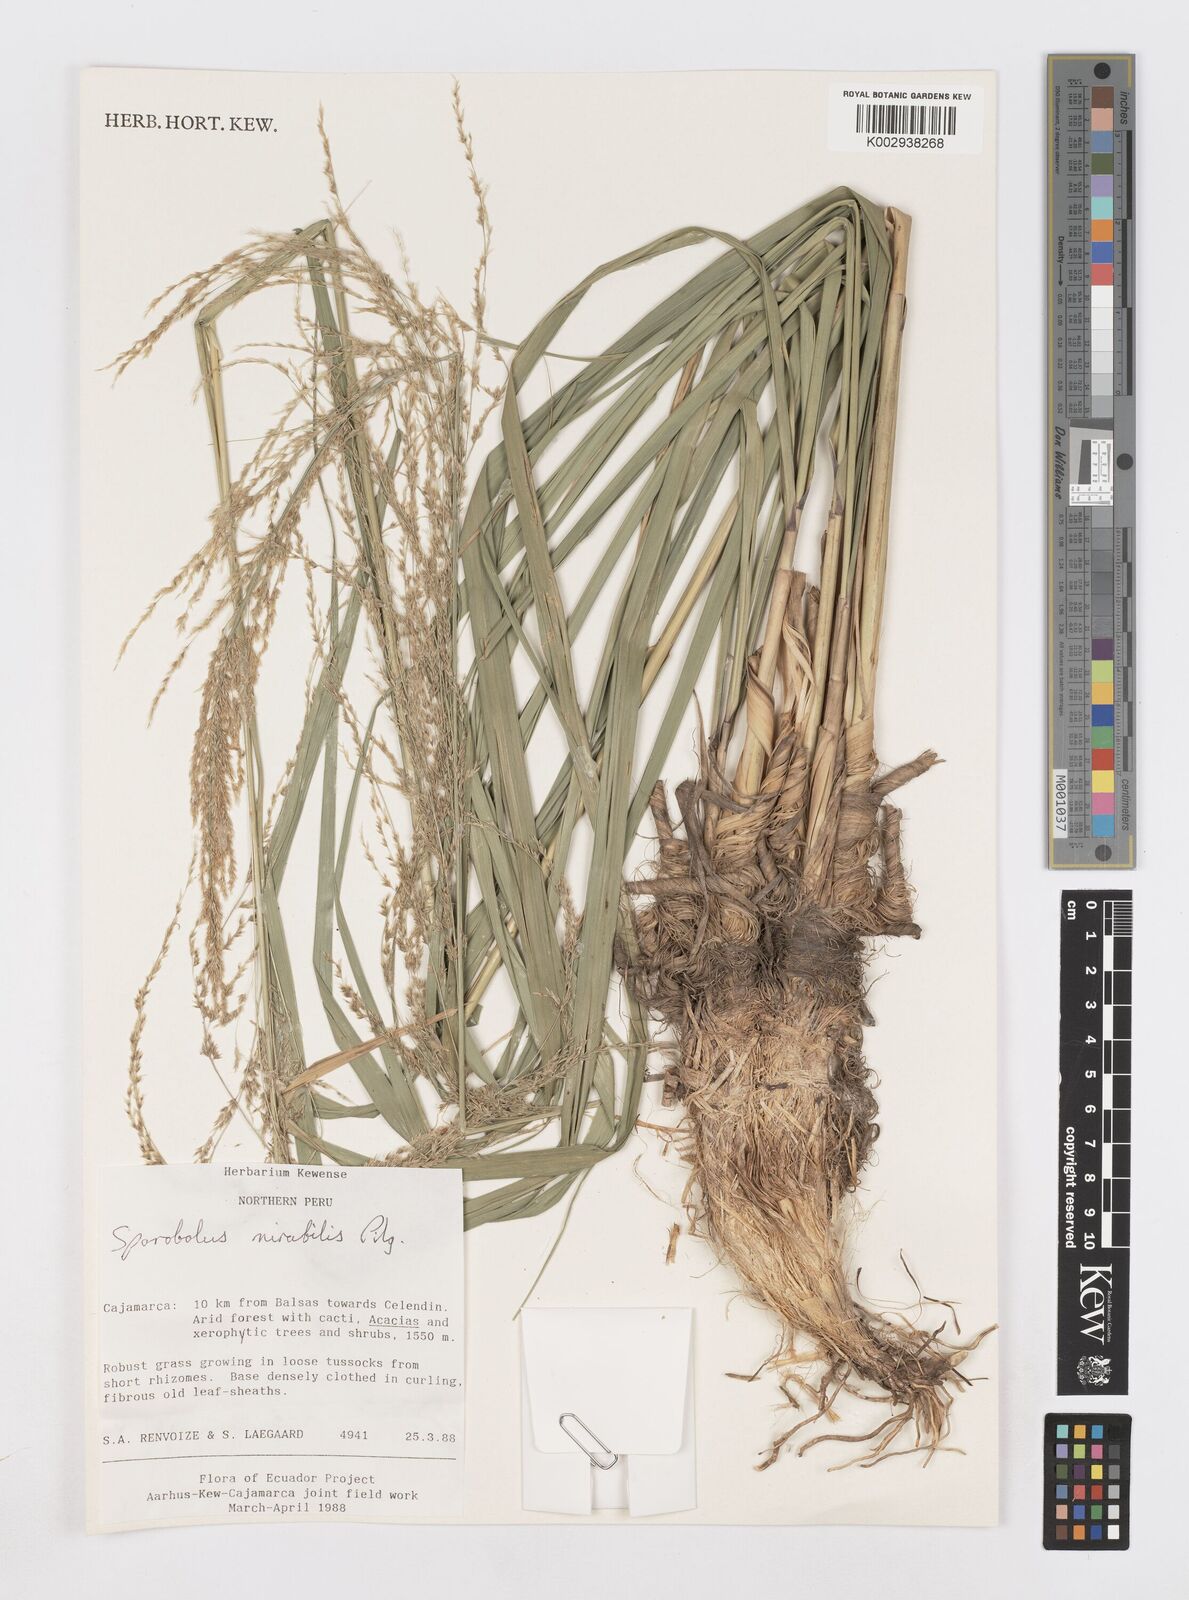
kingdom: Plantae
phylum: Tracheophyta
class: Liliopsida
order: Poales
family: Poaceae
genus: Sporobolus
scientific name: Sporobolus mirabilis
